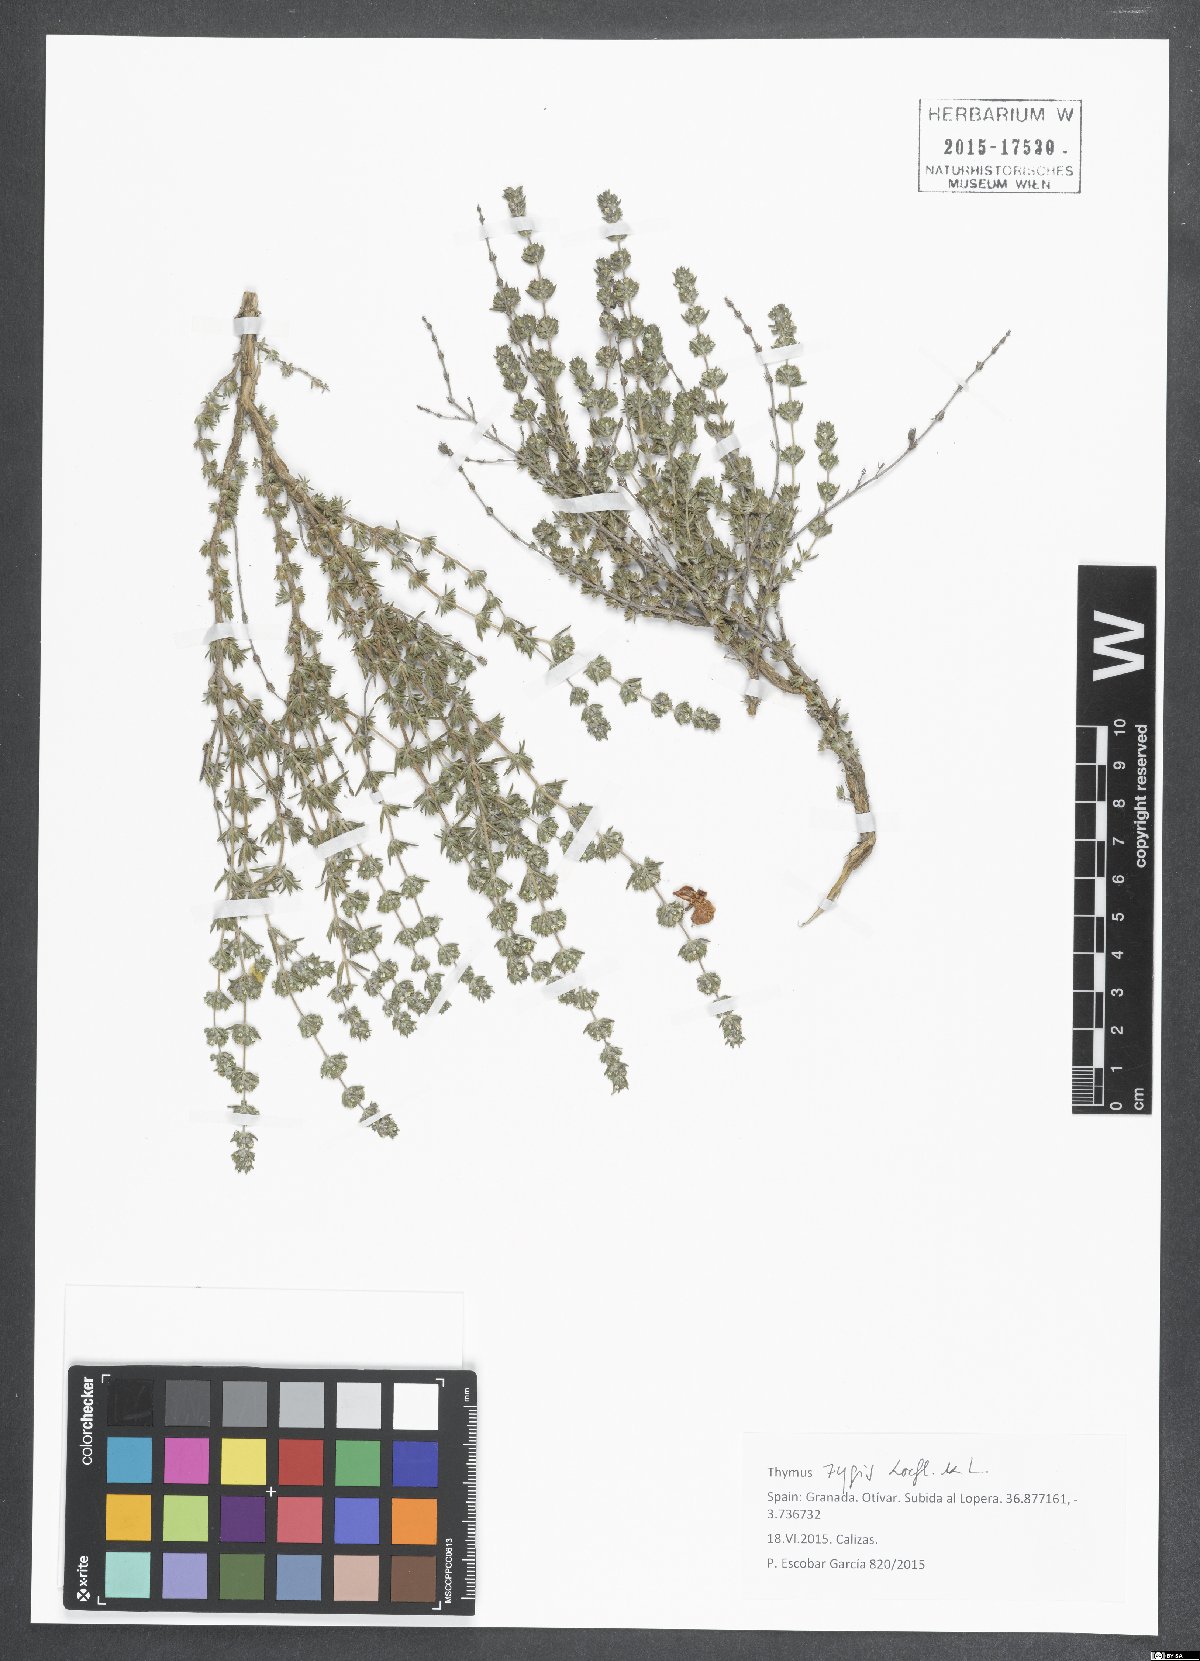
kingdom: Plantae
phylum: Tracheophyta
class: Magnoliopsida
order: Lamiales
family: Lamiaceae
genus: Thymus
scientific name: Thymus zygis
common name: White thyme
